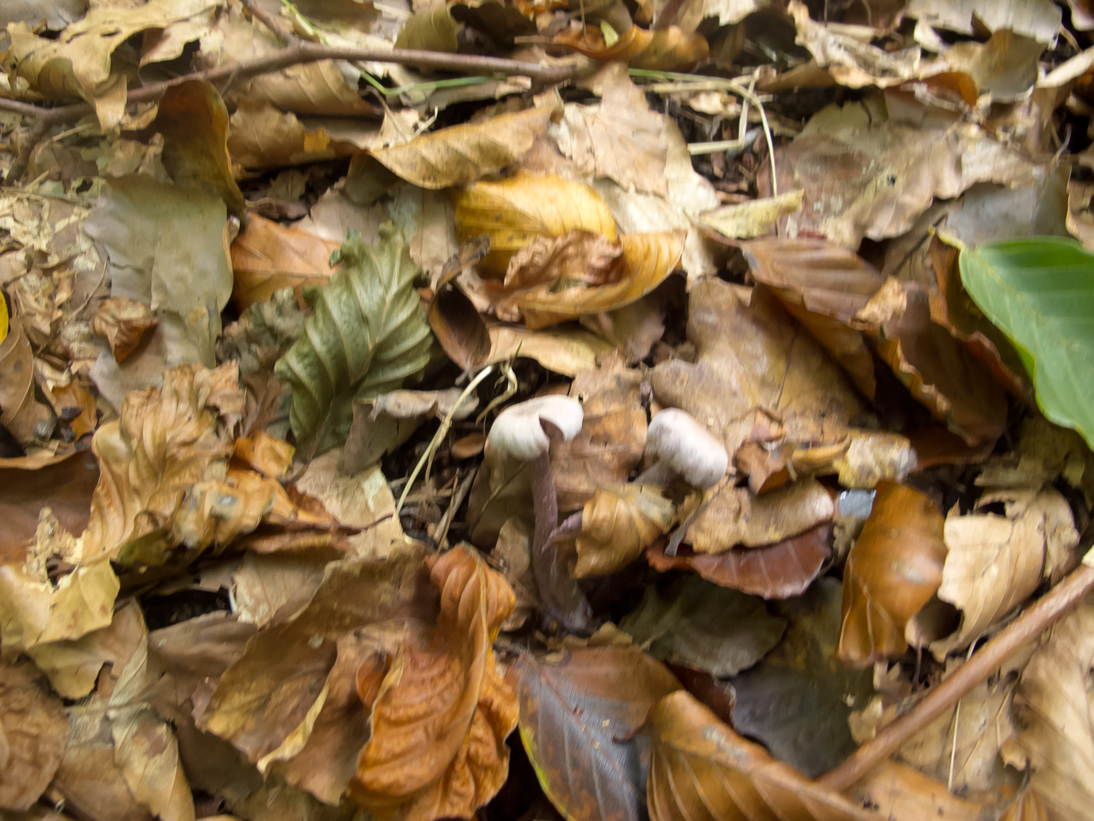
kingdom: Fungi
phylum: Basidiomycota
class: Agaricomycetes
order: Agaricales
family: Hydnangiaceae
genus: Laccaria
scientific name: Laccaria amethystina
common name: violet ametysthat
